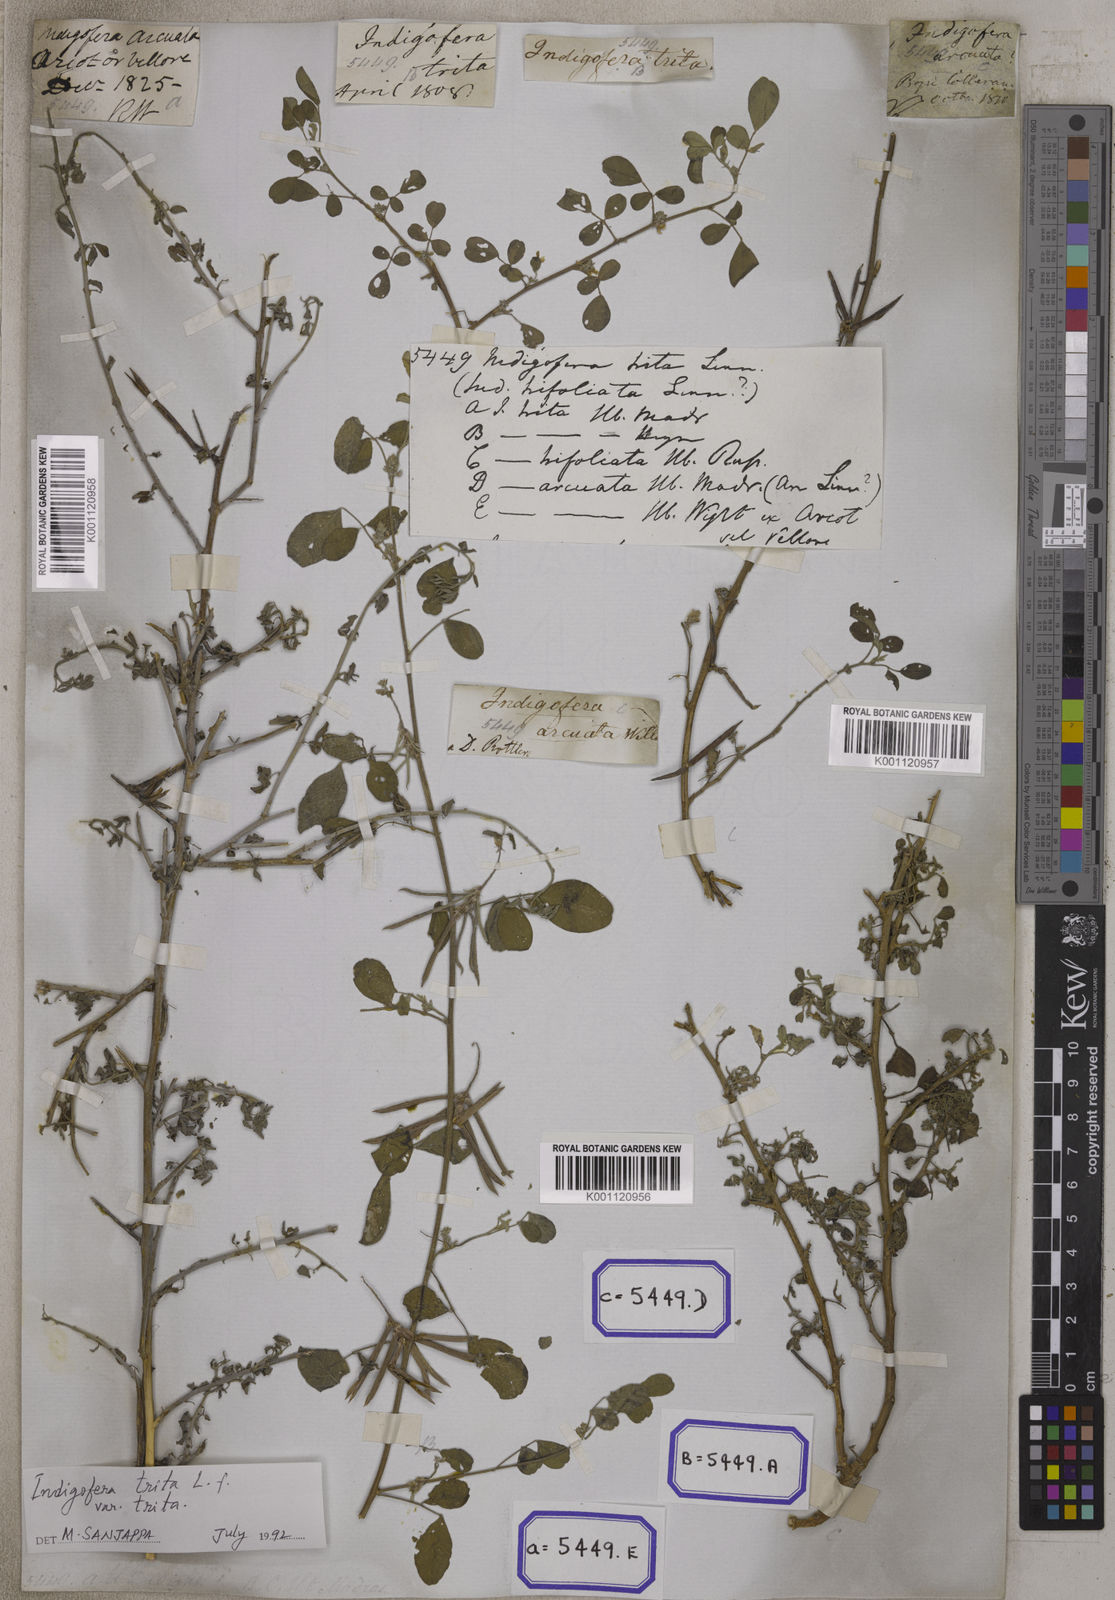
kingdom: Plantae
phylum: Tracheophyta
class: Magnoliopsida
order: Fabales
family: Fabaceae
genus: Indigofera
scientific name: Indigofera trita
